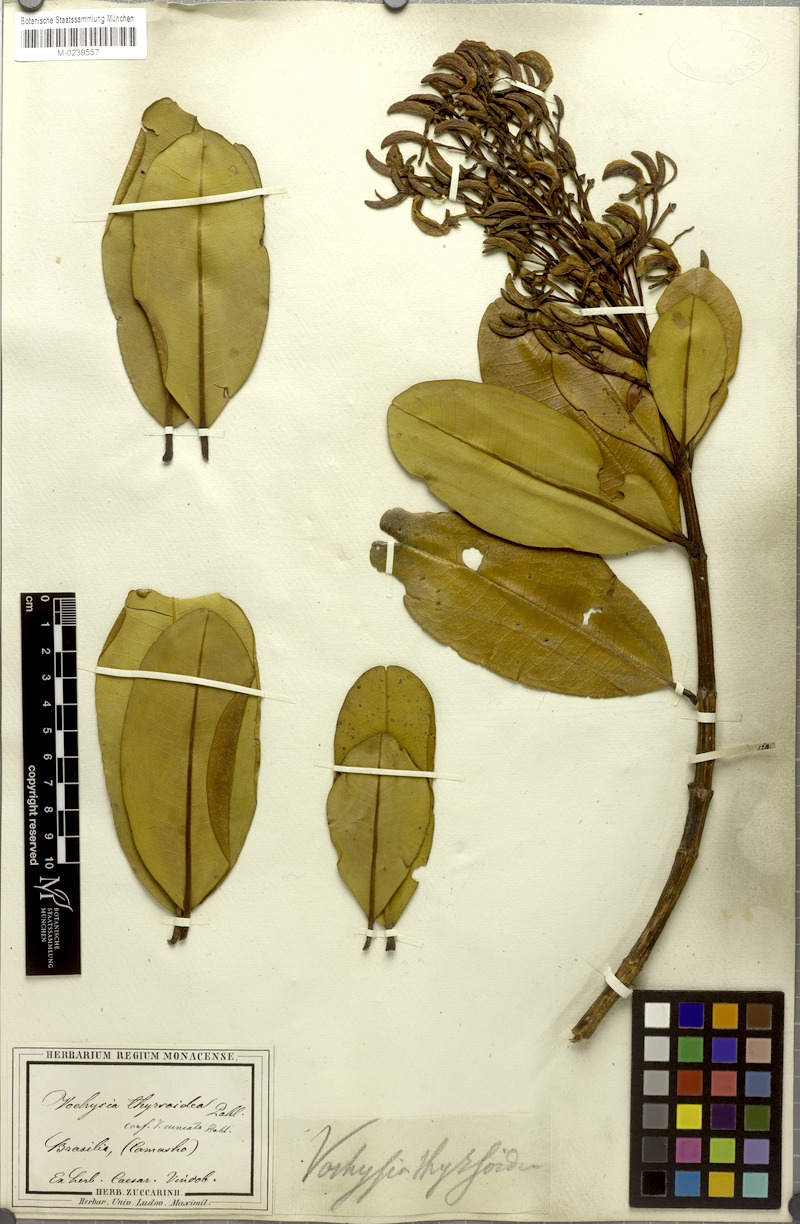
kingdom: Plantae
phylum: Tracheophyta
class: Magnoliopsida
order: Myrtales
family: Vochysiaceae
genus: Vochysia
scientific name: Vochysia thyrsoidea
